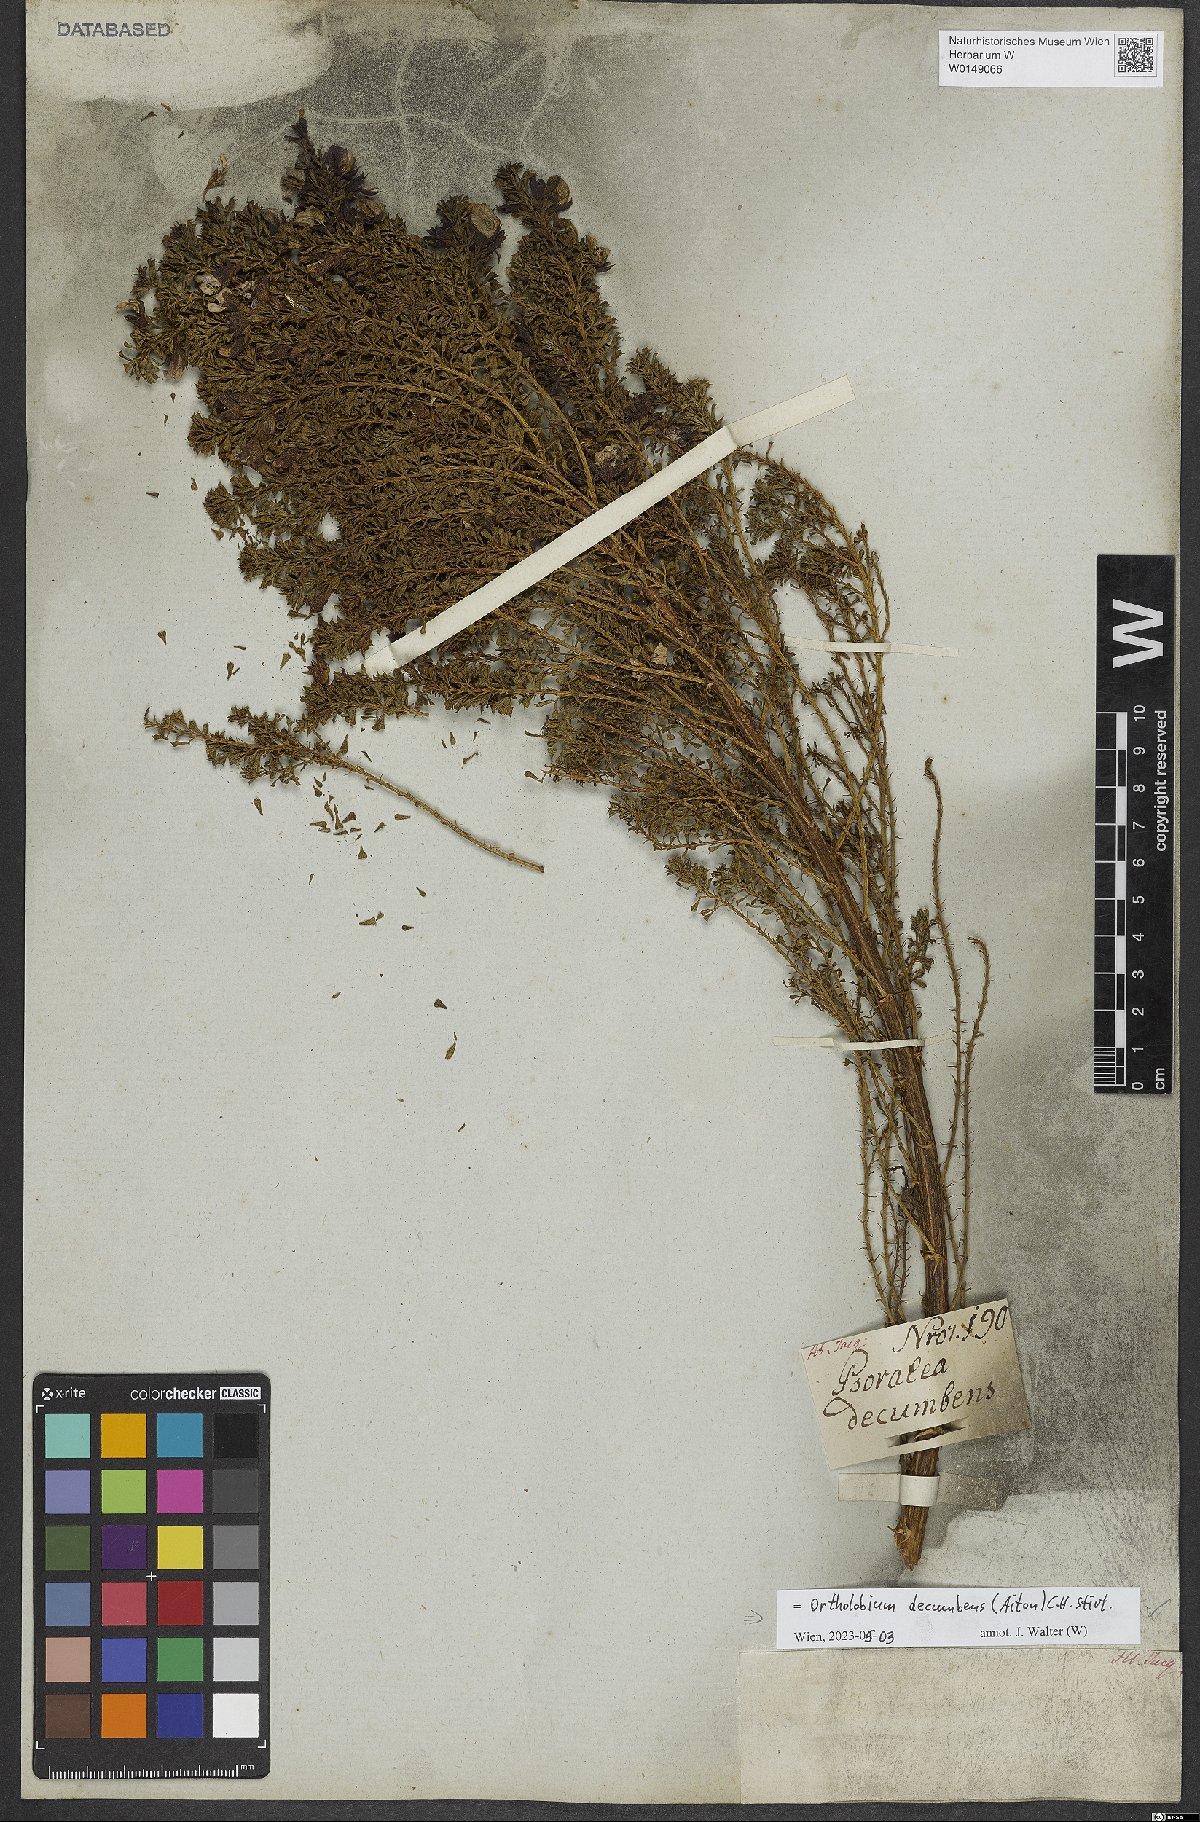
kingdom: Plantae
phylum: Tracheophyta
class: Magnoliopsida
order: Fabales
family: Fabaceae
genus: Psoralea
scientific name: Psoralea Otholobium decumbens
